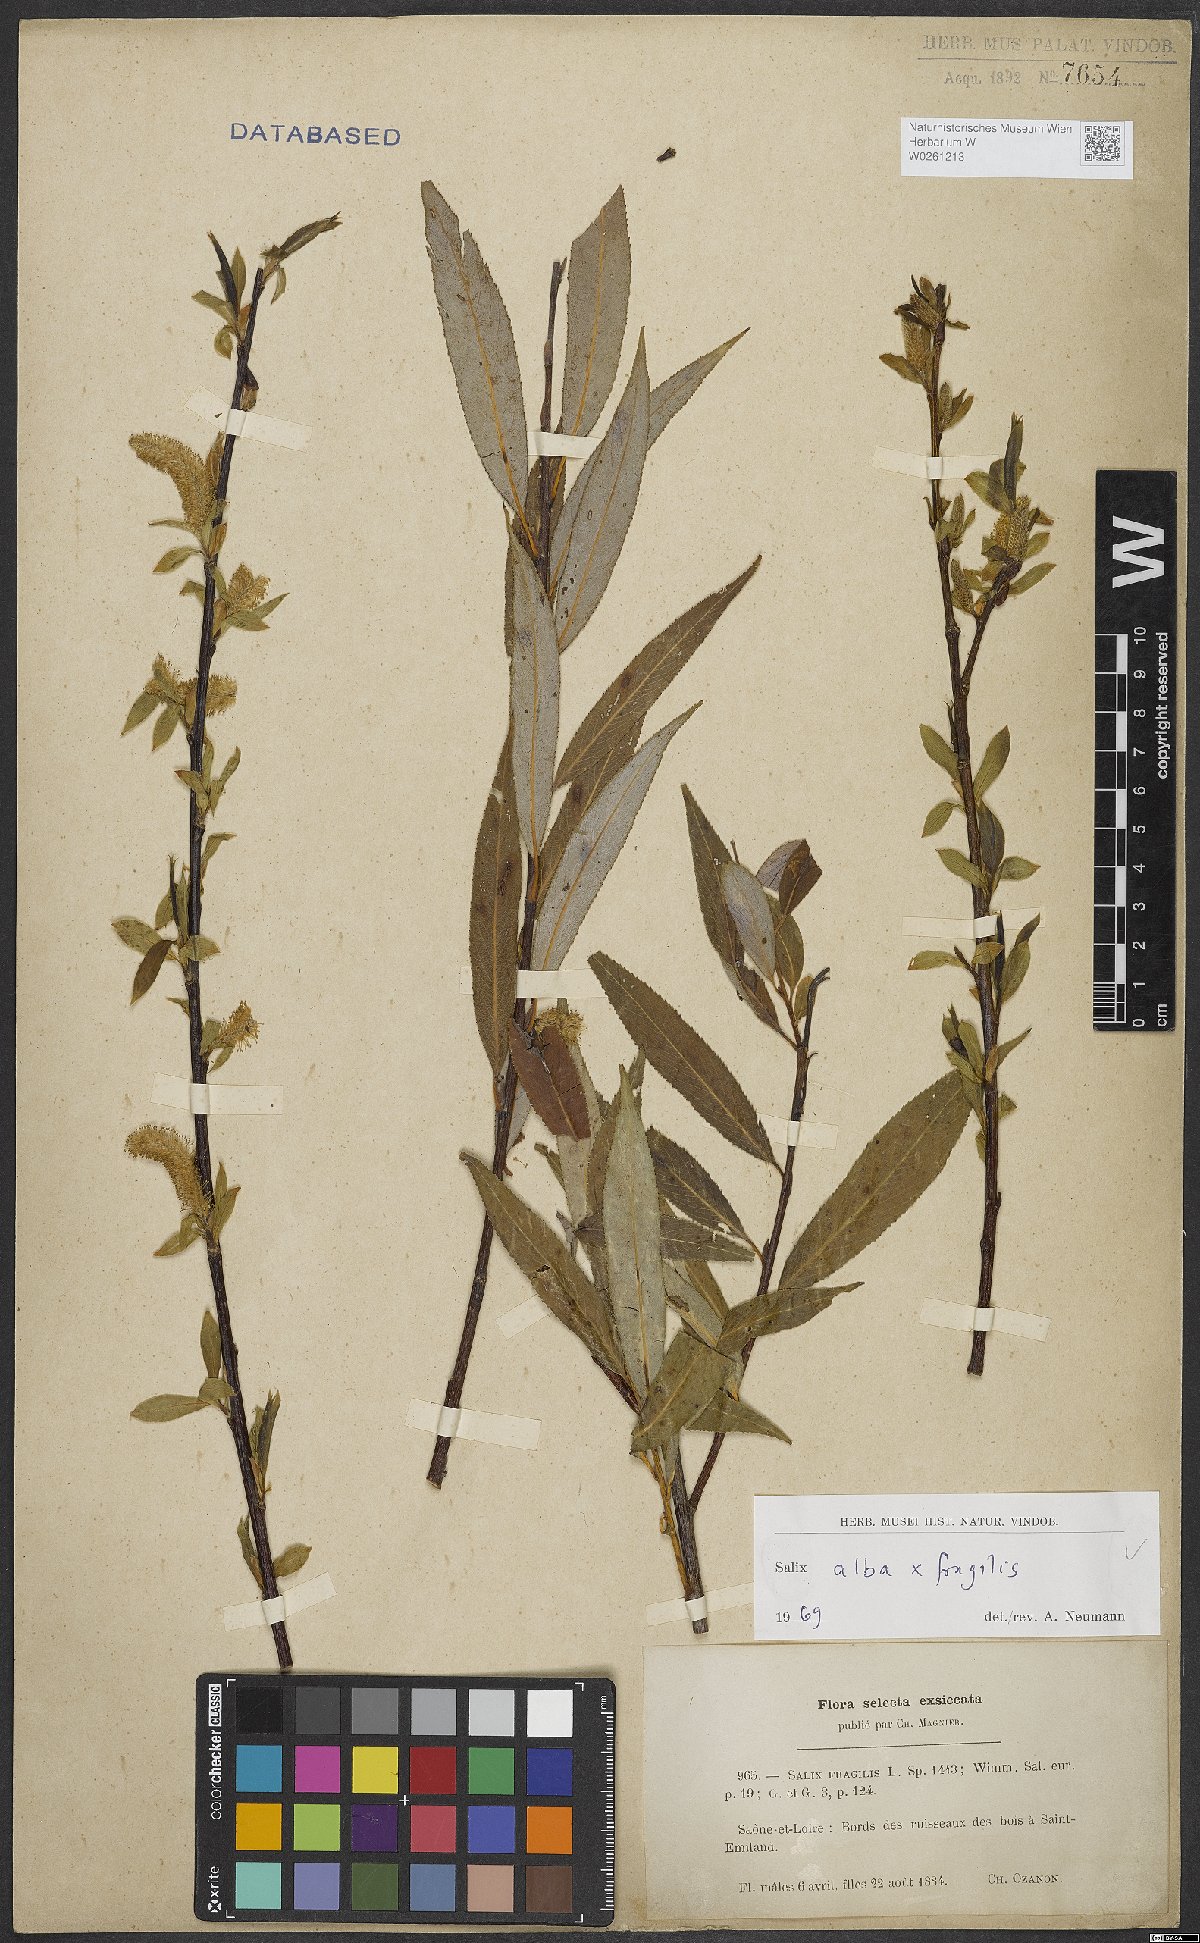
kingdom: Plantae
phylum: Tracheophyta
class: Magnoliopsida
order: Malpighiales
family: Salicaceae
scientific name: Salicaceae
